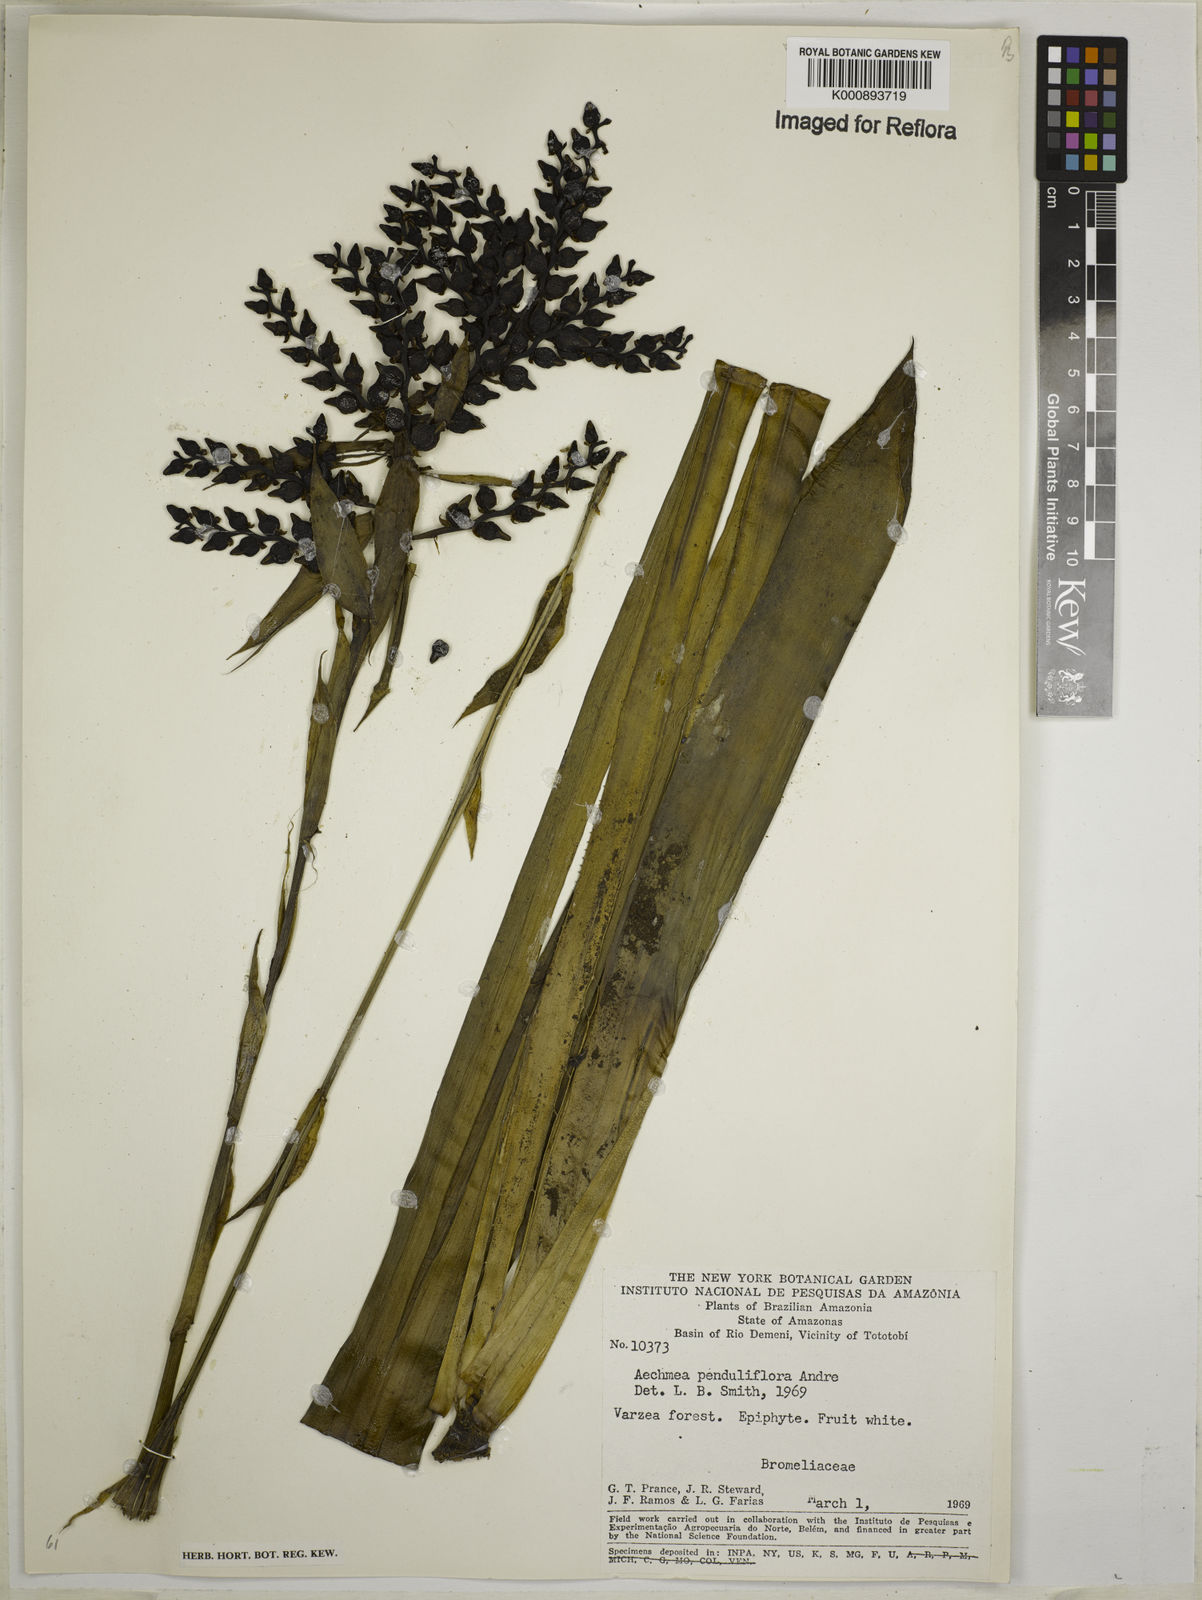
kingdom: Plantae
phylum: Tracheophyta
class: Liliopsida
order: Poales
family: Bromeliaceae
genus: Aechmea
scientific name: Aechmea
